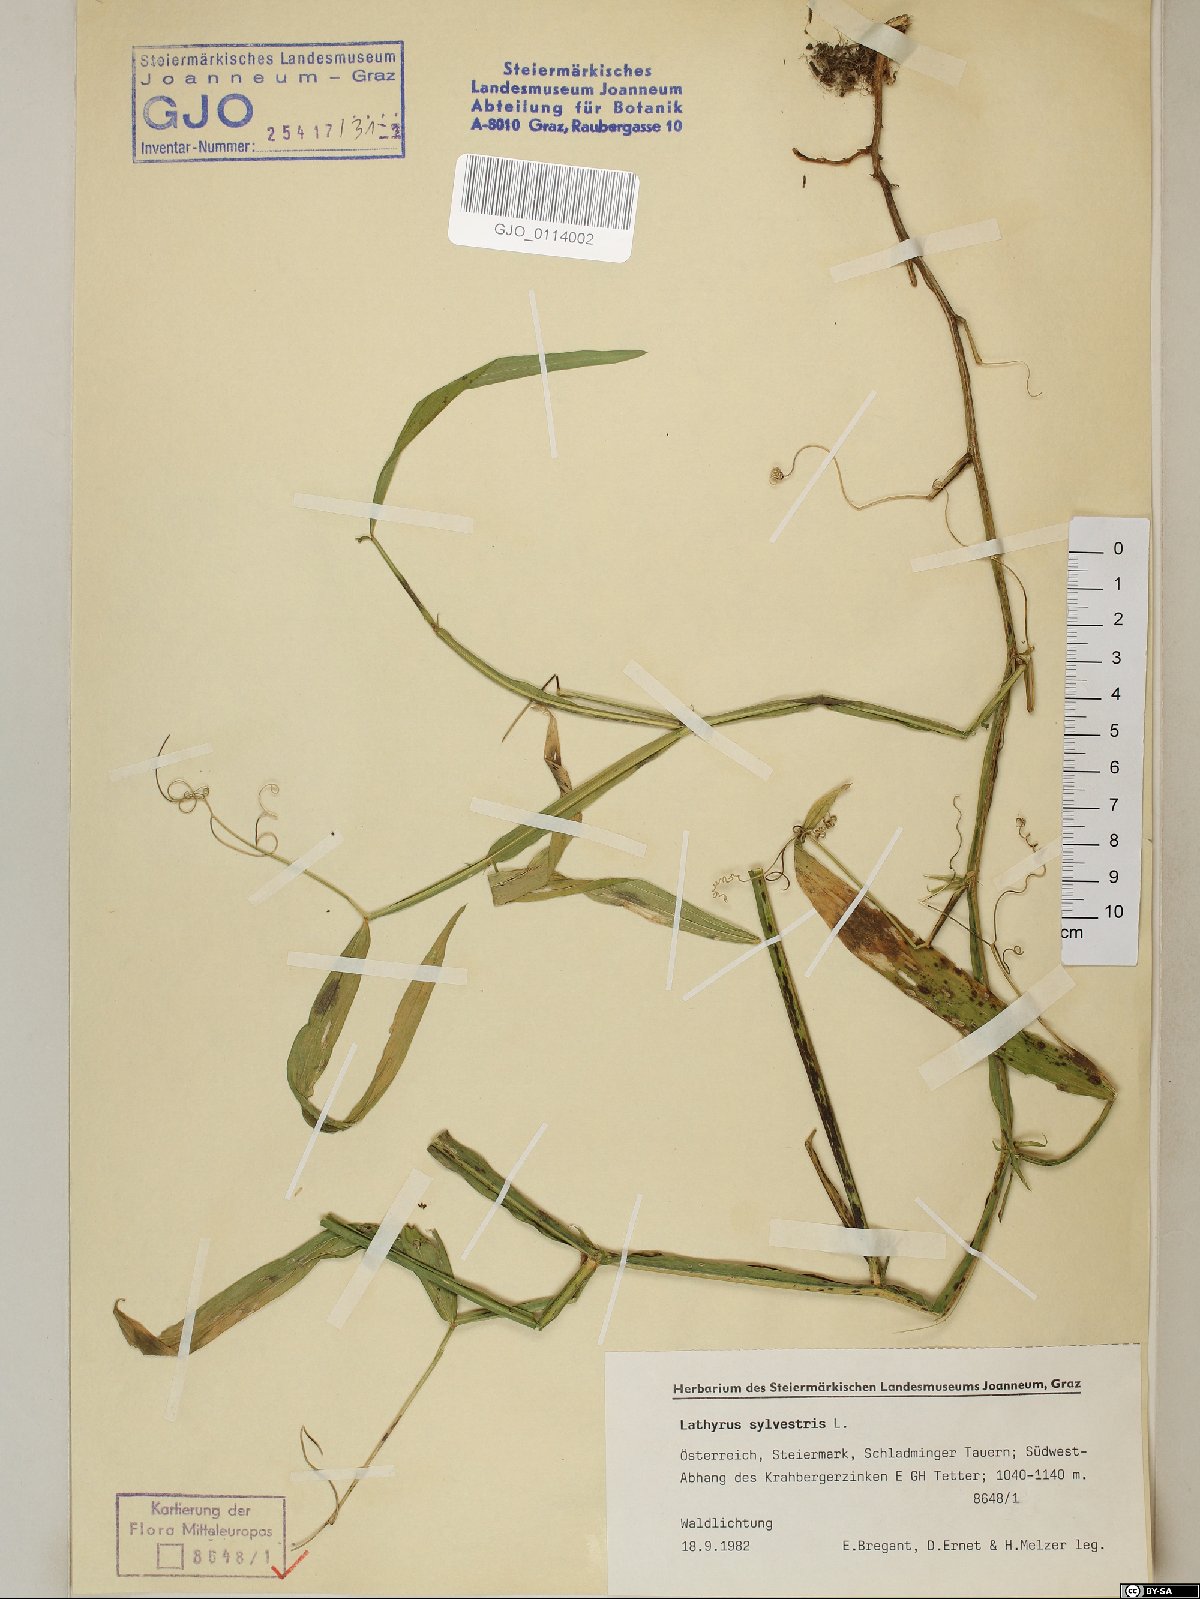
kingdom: Plantae
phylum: Tracheophyta
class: Magnoliopsida
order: Fabales
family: Fabaceae
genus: Lathyrus
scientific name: Lathyrus sylvestris
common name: Flat pea
